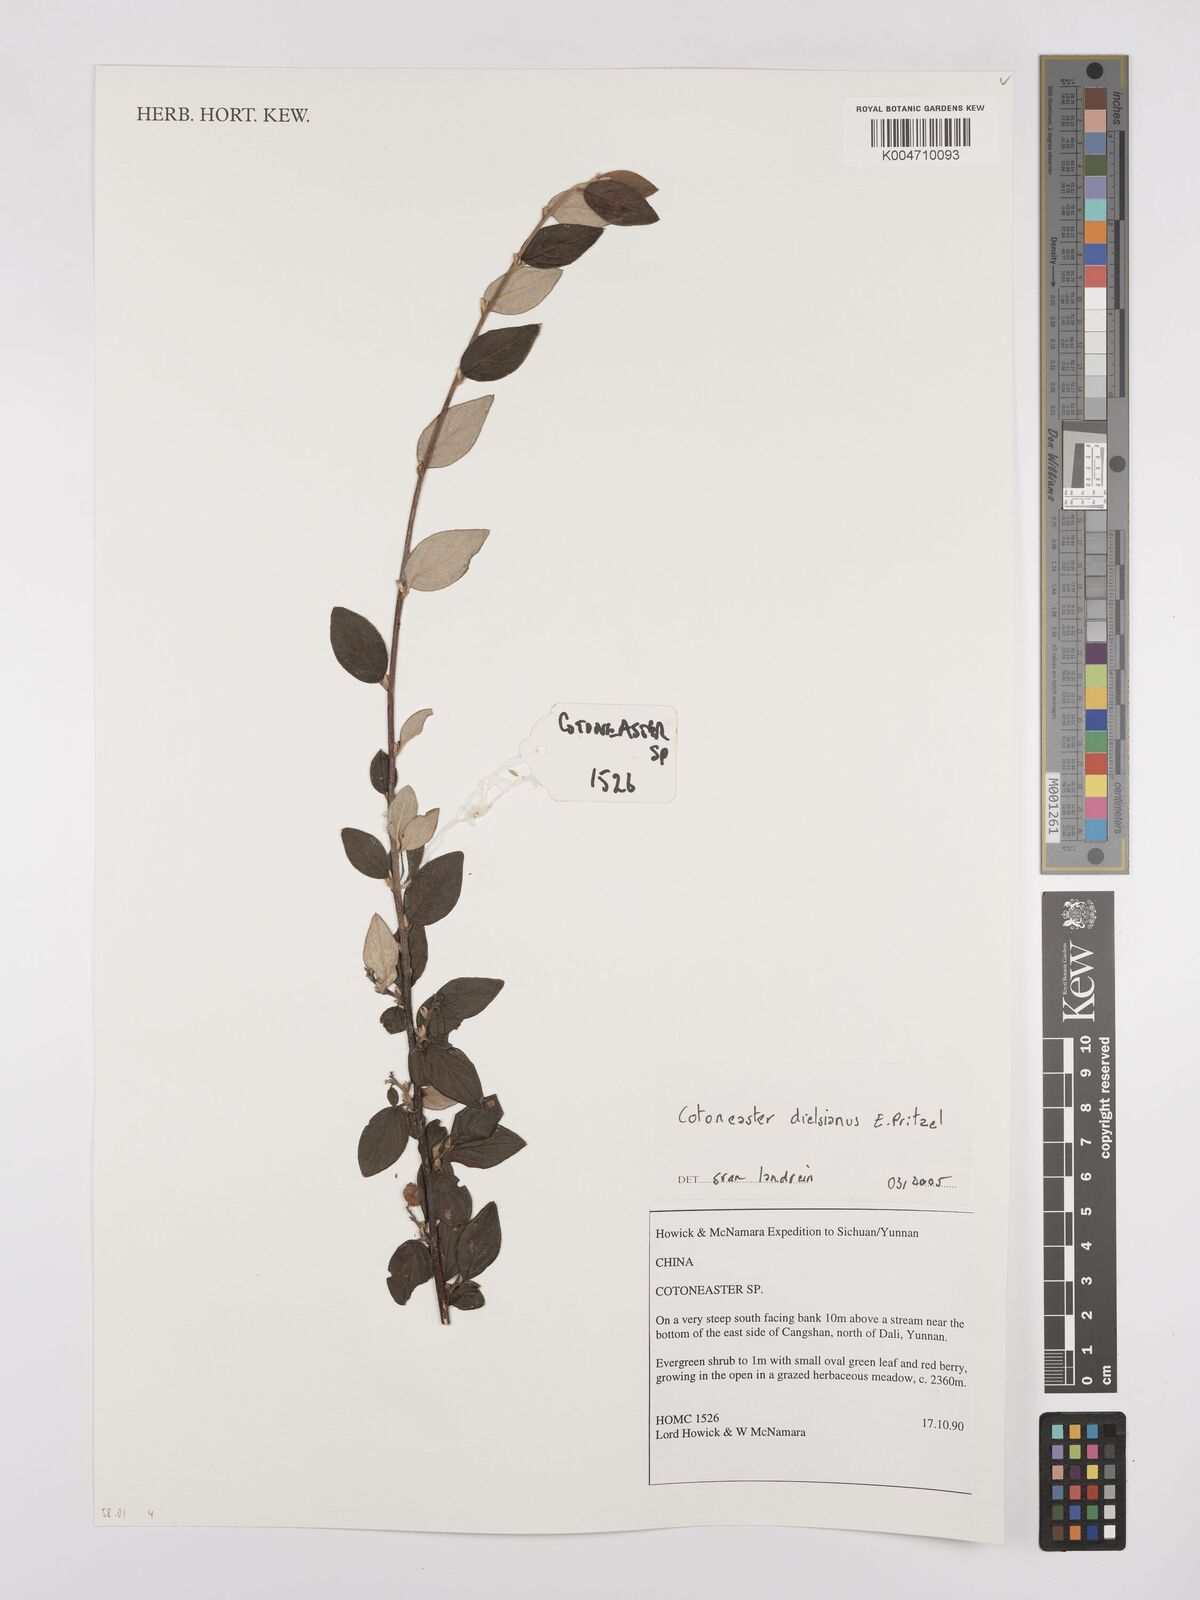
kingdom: Plantae
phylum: Tracheophyta
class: Magnoliopsida
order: Rosales
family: Rosaceae
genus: Cotoneaster
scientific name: Cotoneaster dielsianus
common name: Diels's cotoneaster
